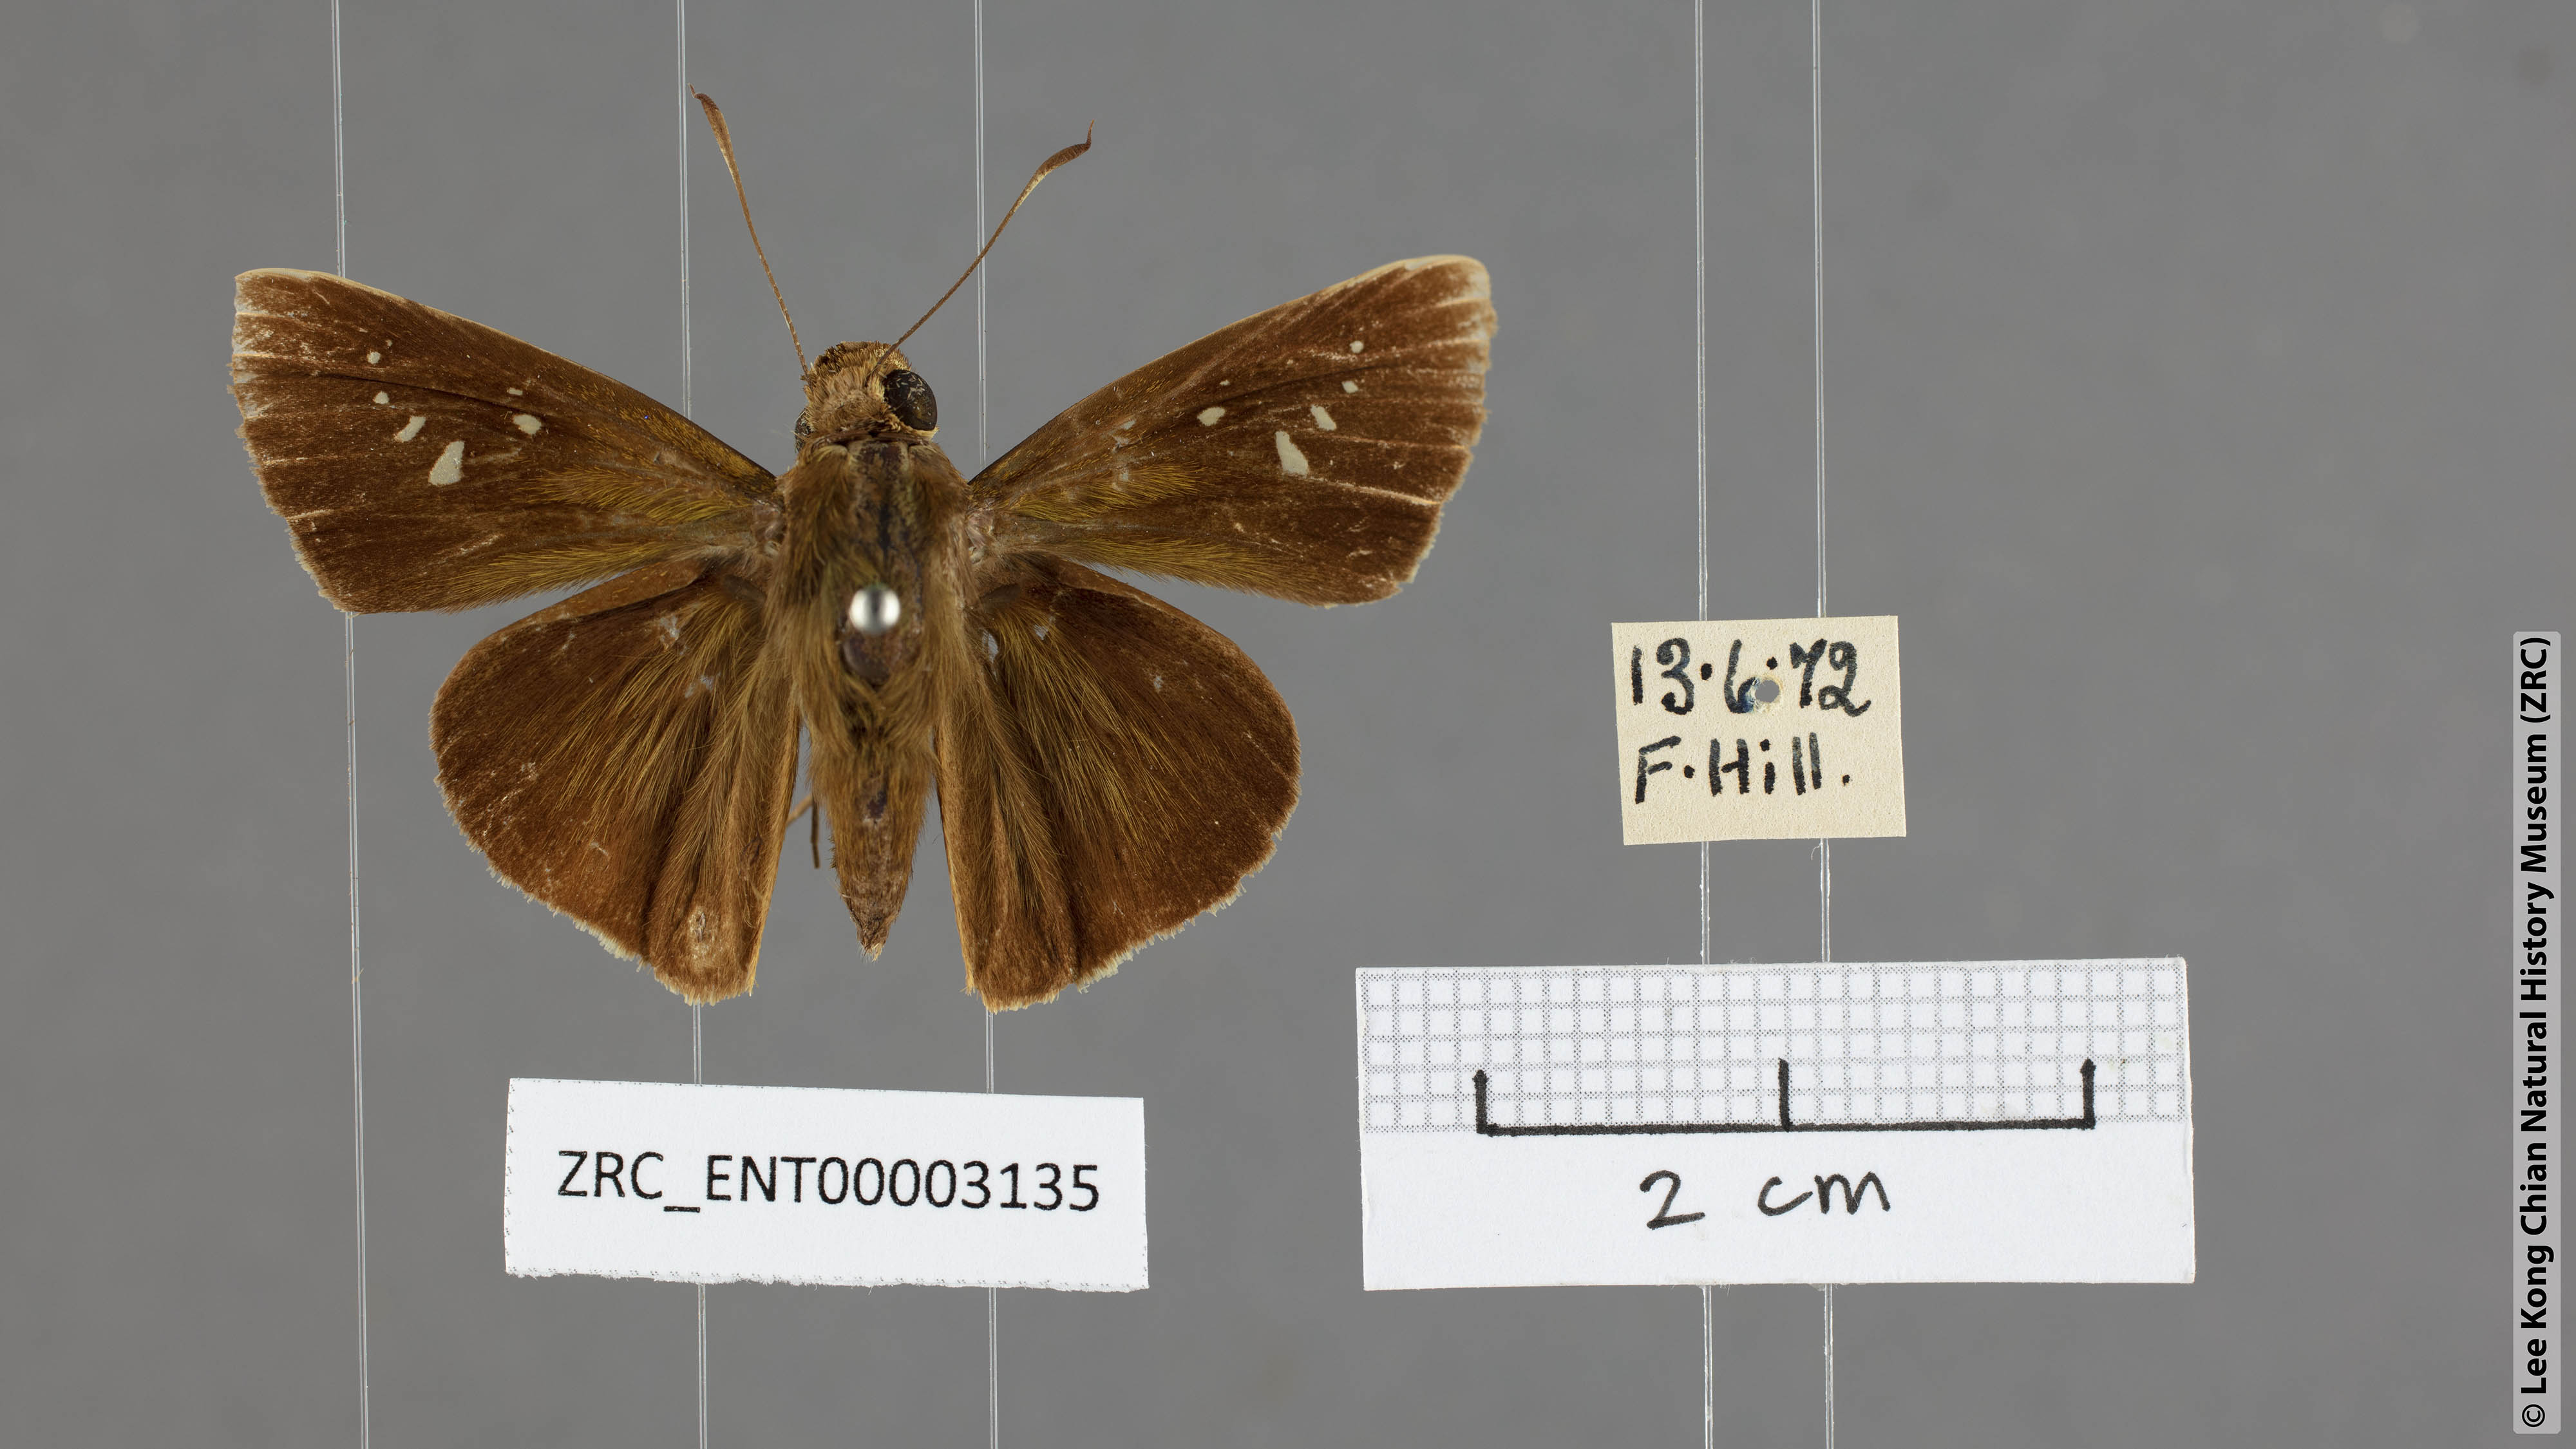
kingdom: Animalia
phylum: Arthropoda
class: Insecta
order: Lepidoptera
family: Hesperiidae
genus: Baoris
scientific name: Baoris oceia
